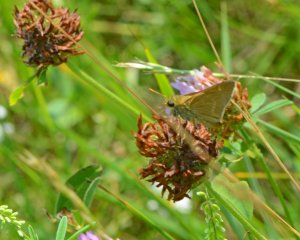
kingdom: Animalia
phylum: Arthropoda
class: Insecta
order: Lepidoptera
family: Hesperiidae
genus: Polites
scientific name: Polites
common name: Crossline Skipper
